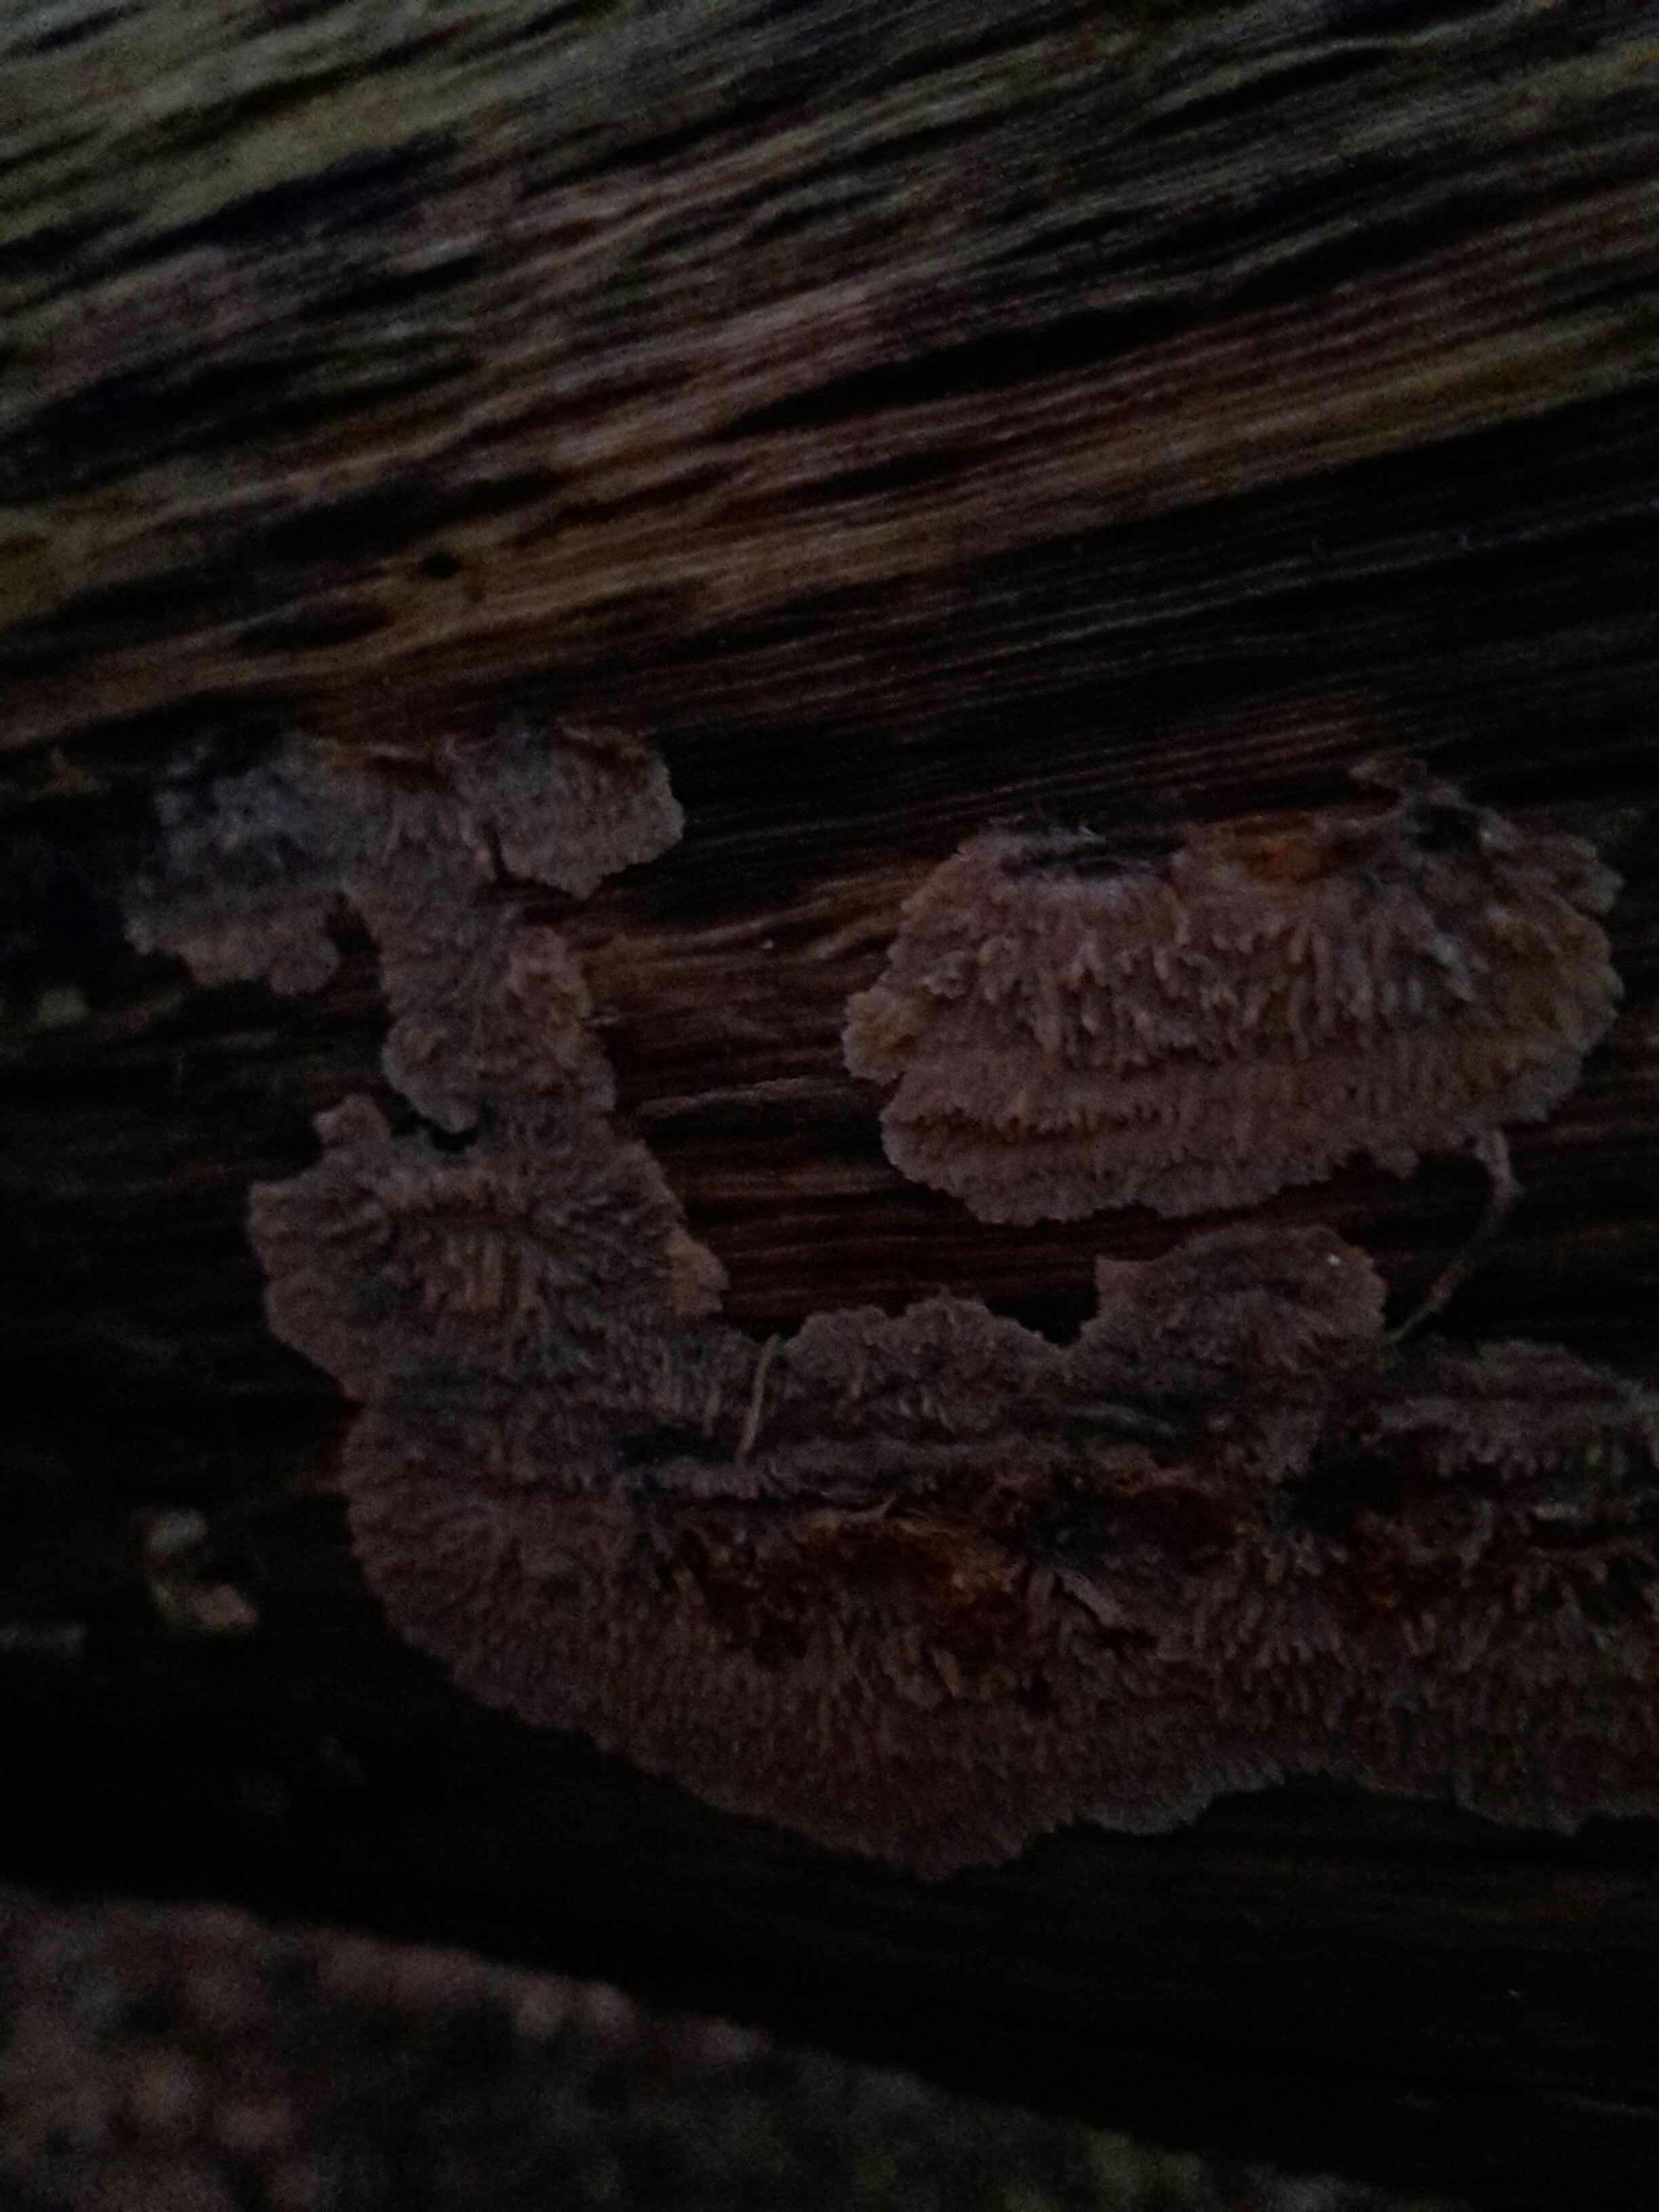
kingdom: Fungi
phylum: Basidiomycota
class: Agaricomycetes
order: Polyporales
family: Meruliaceae
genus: Phlebia
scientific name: Phlebia radiata
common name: stråle-åresvamp
